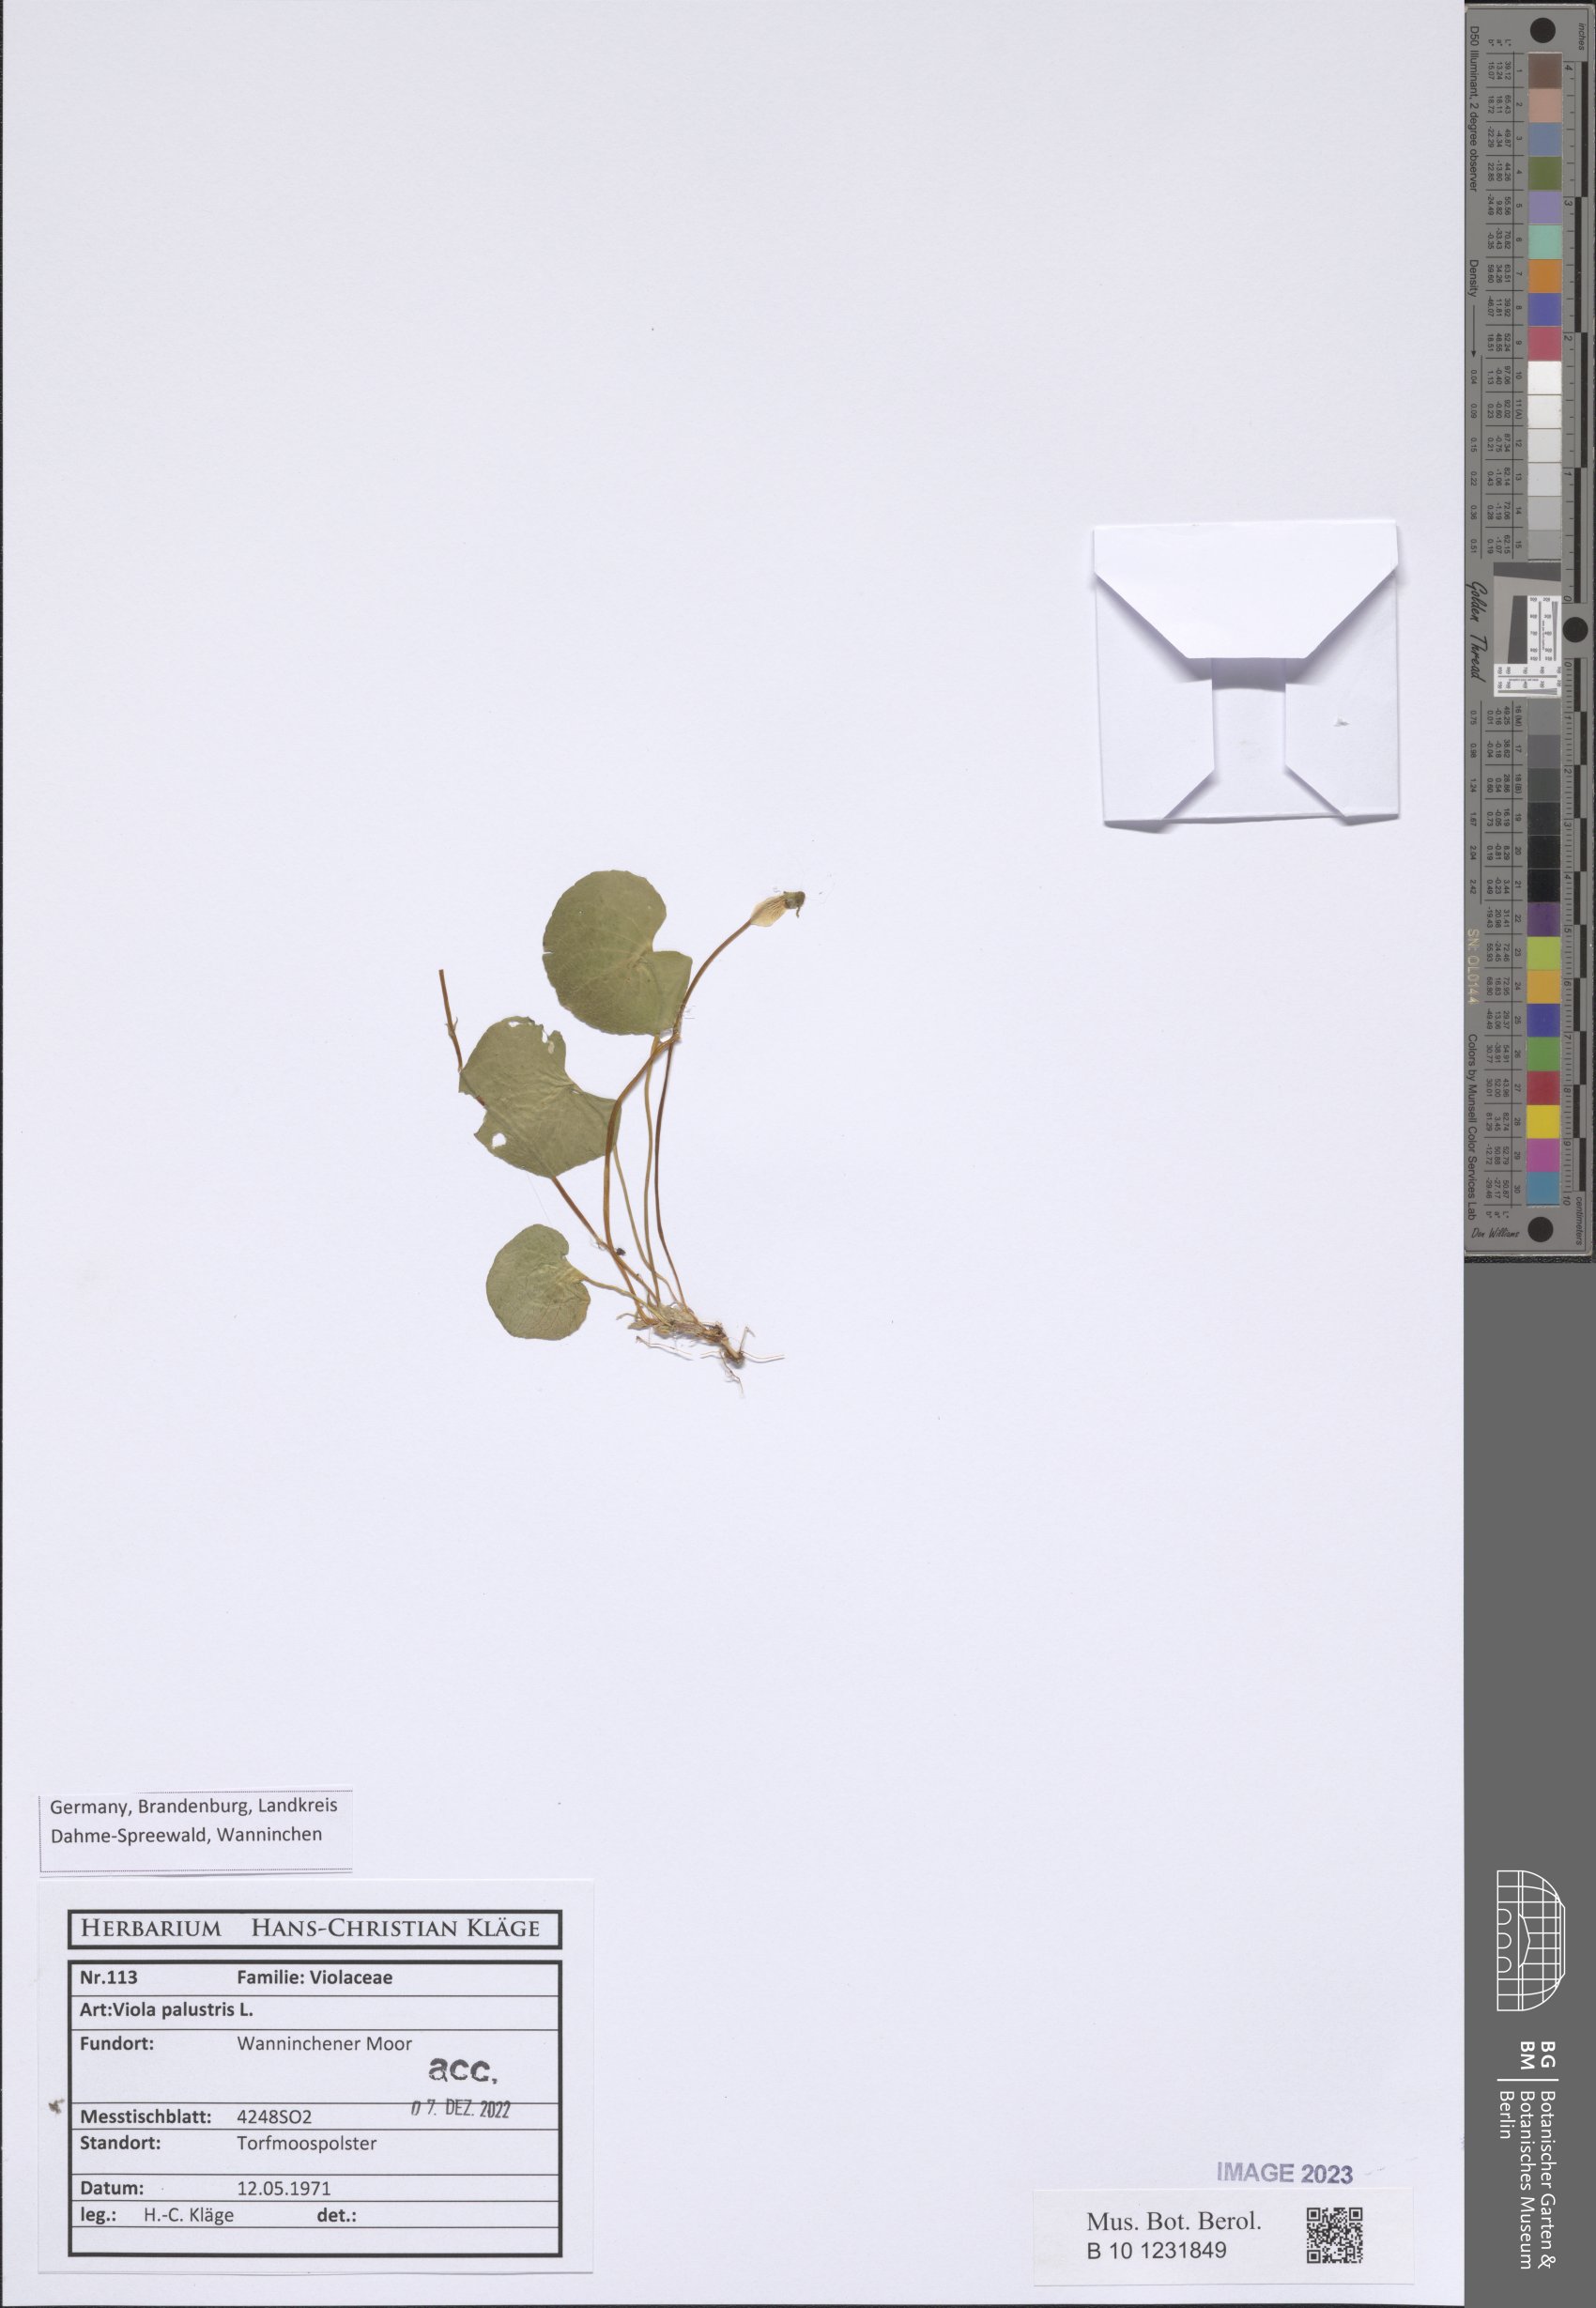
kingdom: Plantae
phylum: Tracheophyta
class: Magnoliopsida
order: Malpighiales
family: Violaceae
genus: Viola
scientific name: Viola palustris
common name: Marsh violet
